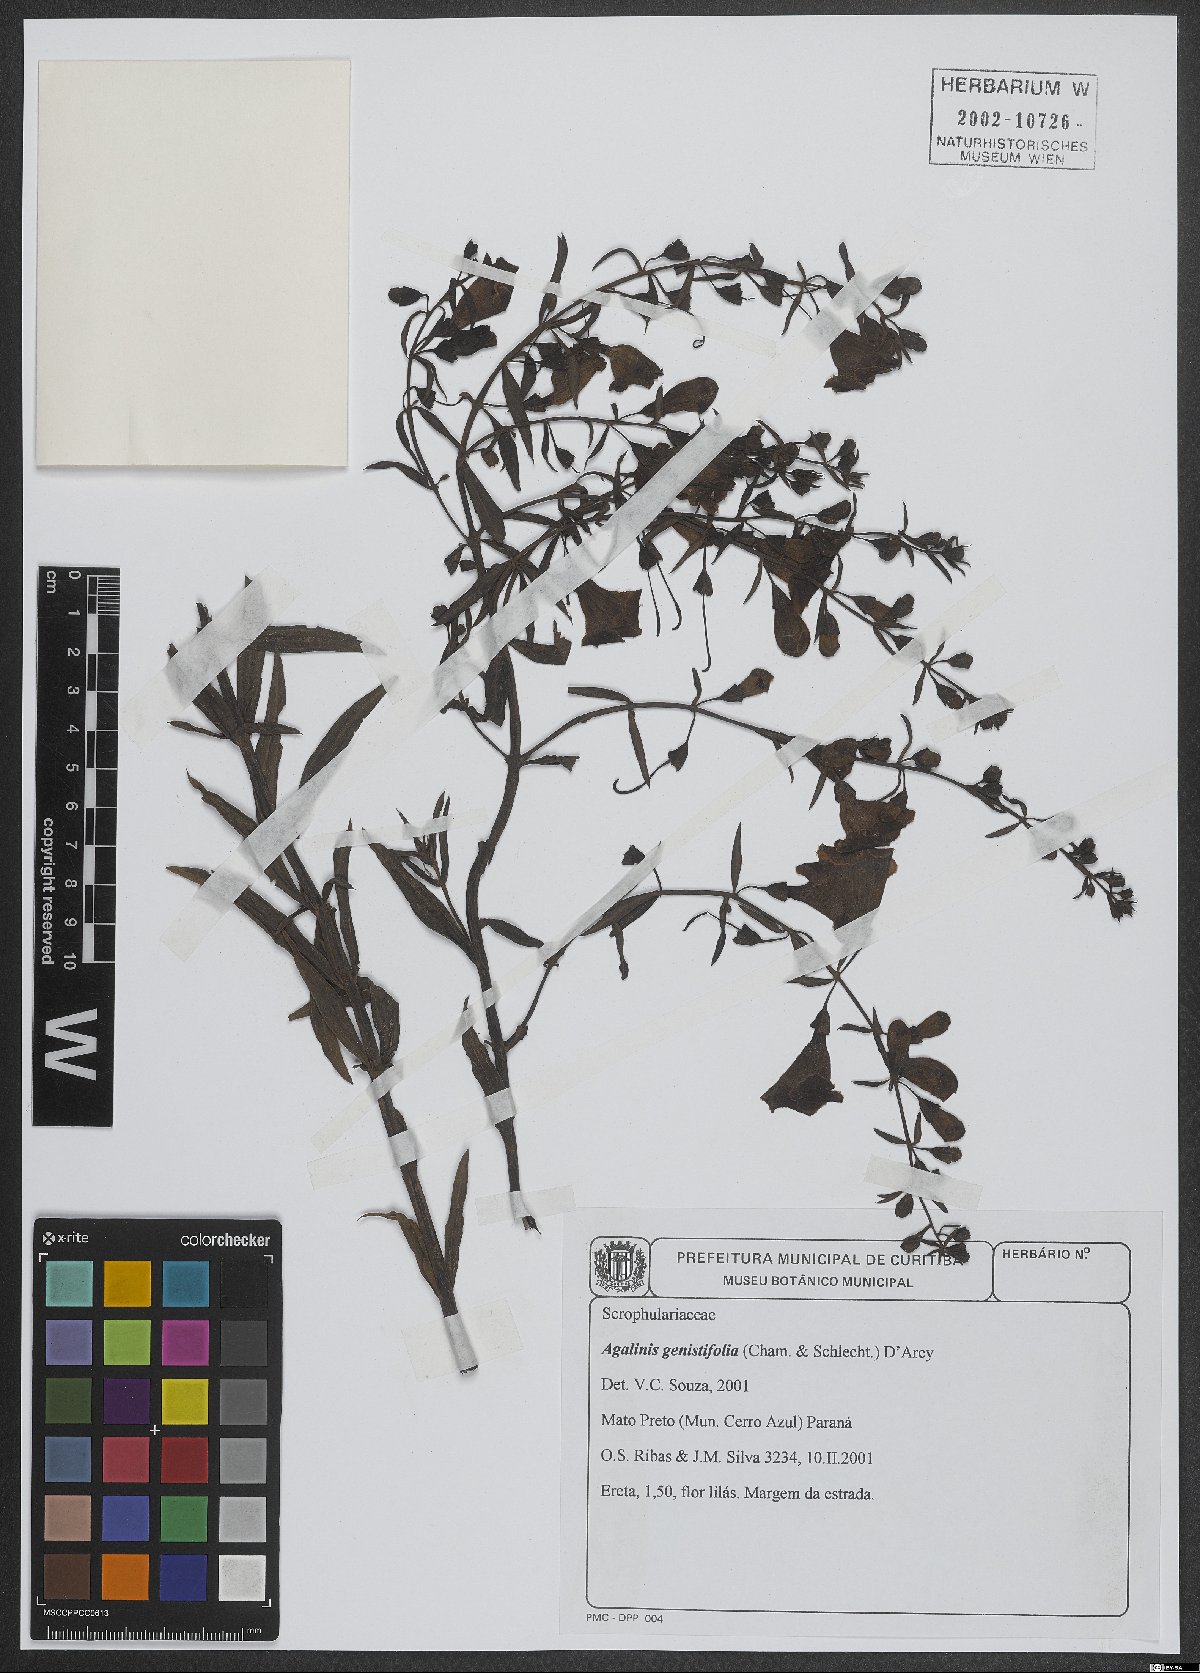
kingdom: Plantae
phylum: Tracheophyta
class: Magnoliopsida
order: Lamiales
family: Scrophulariaceae
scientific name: Scrophulariaceae
